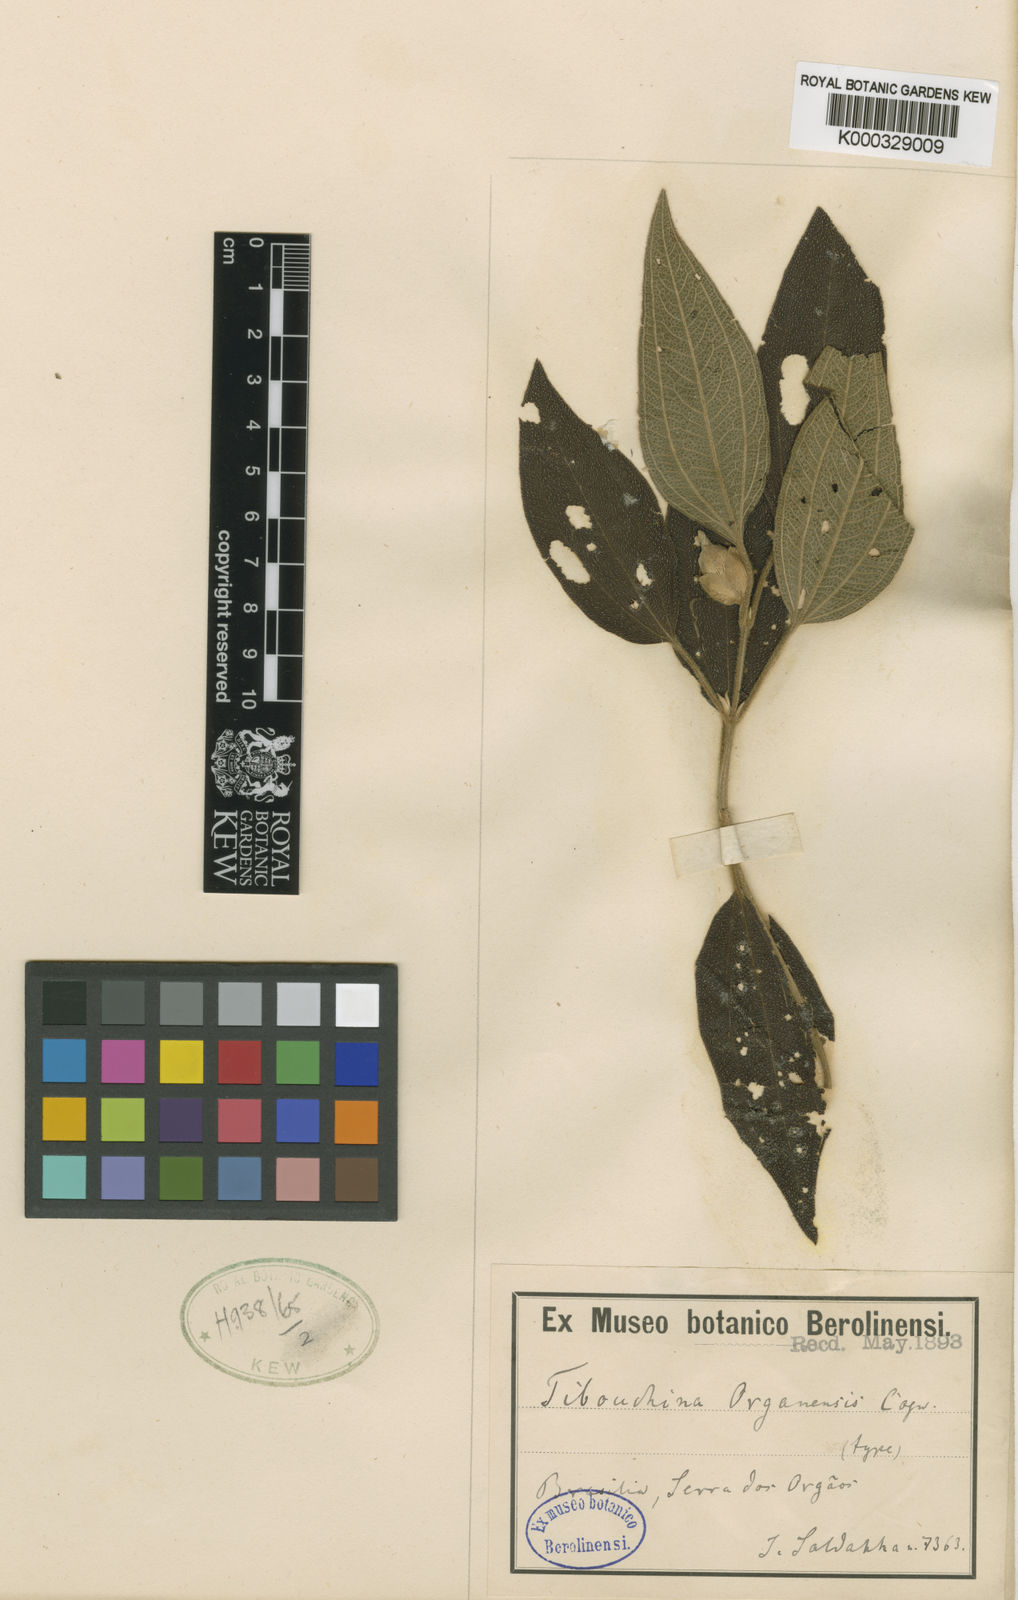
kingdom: Plantae
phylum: Tracheophyta
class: Magnoliopsida
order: Myrtales
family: Melastomataceae
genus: Pleroma
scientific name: Pleroma foveolatum
